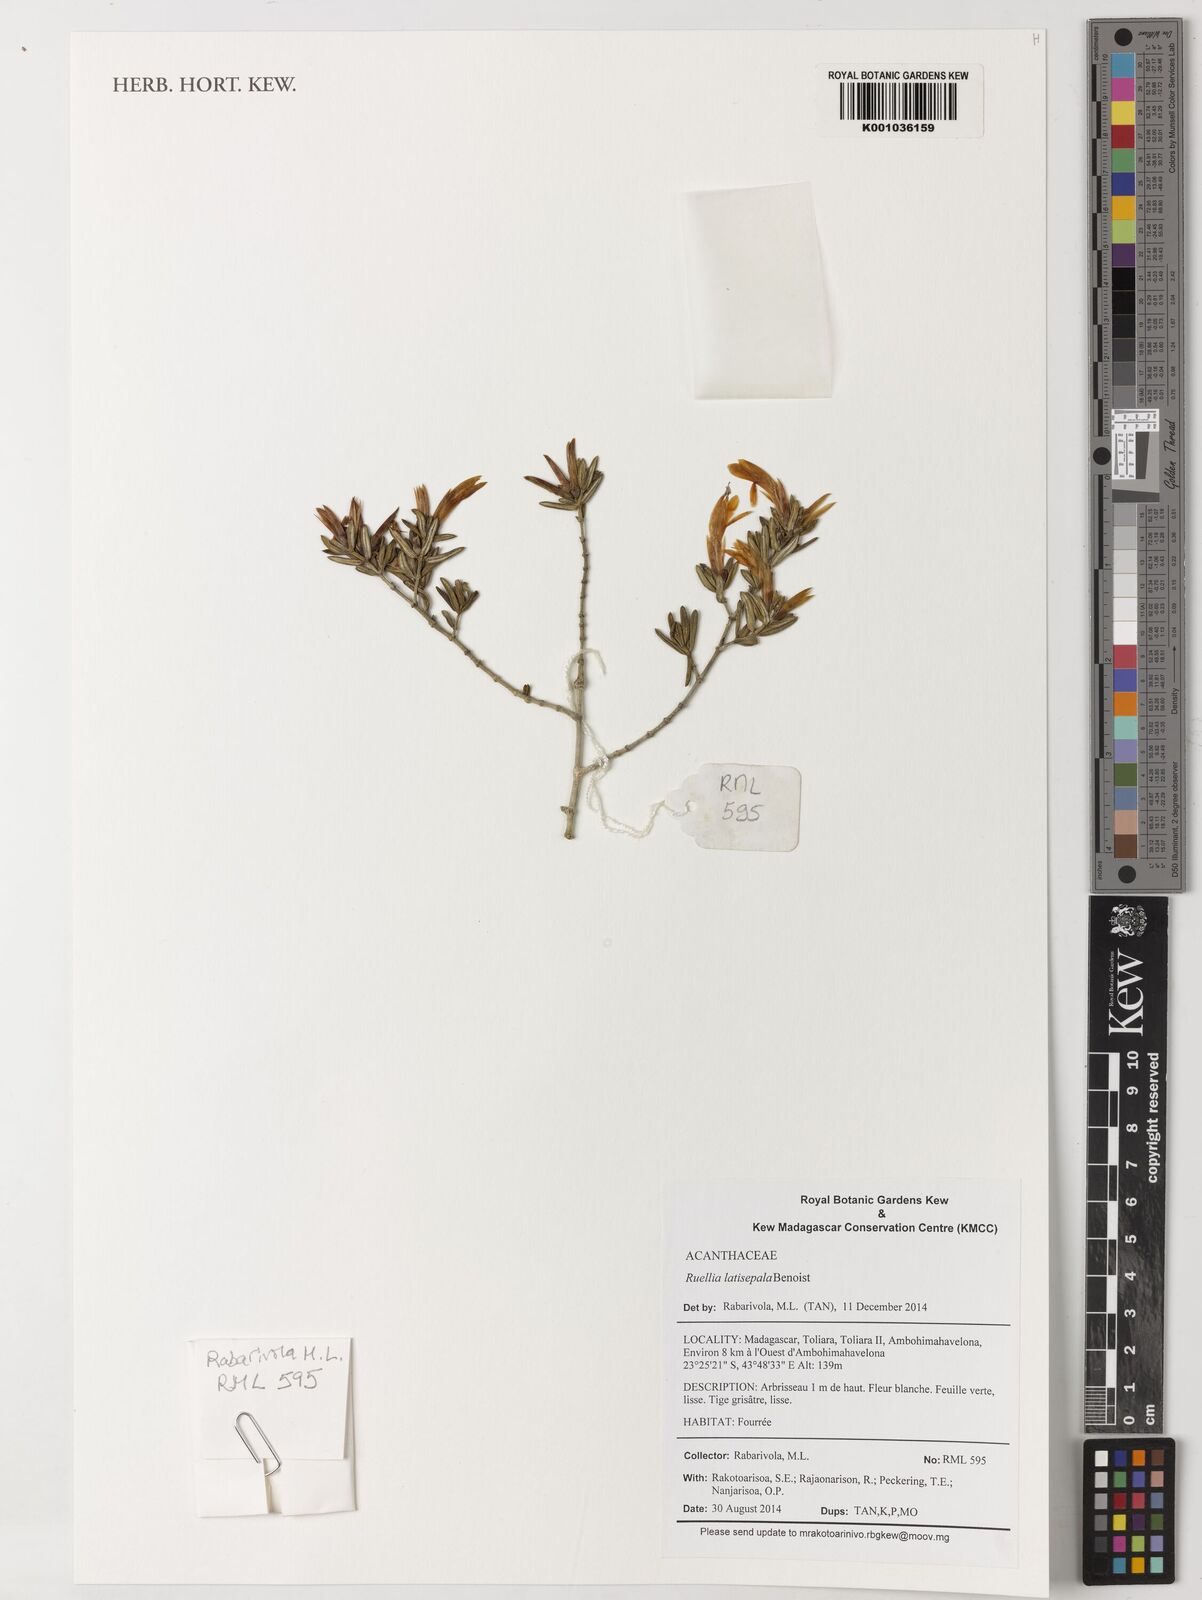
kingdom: Plantae
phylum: Tracheophyta
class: Magnoliopsida
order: Lamiales
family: Acanthaceae
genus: Stenandriopsis
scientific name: Stenandriopsis
